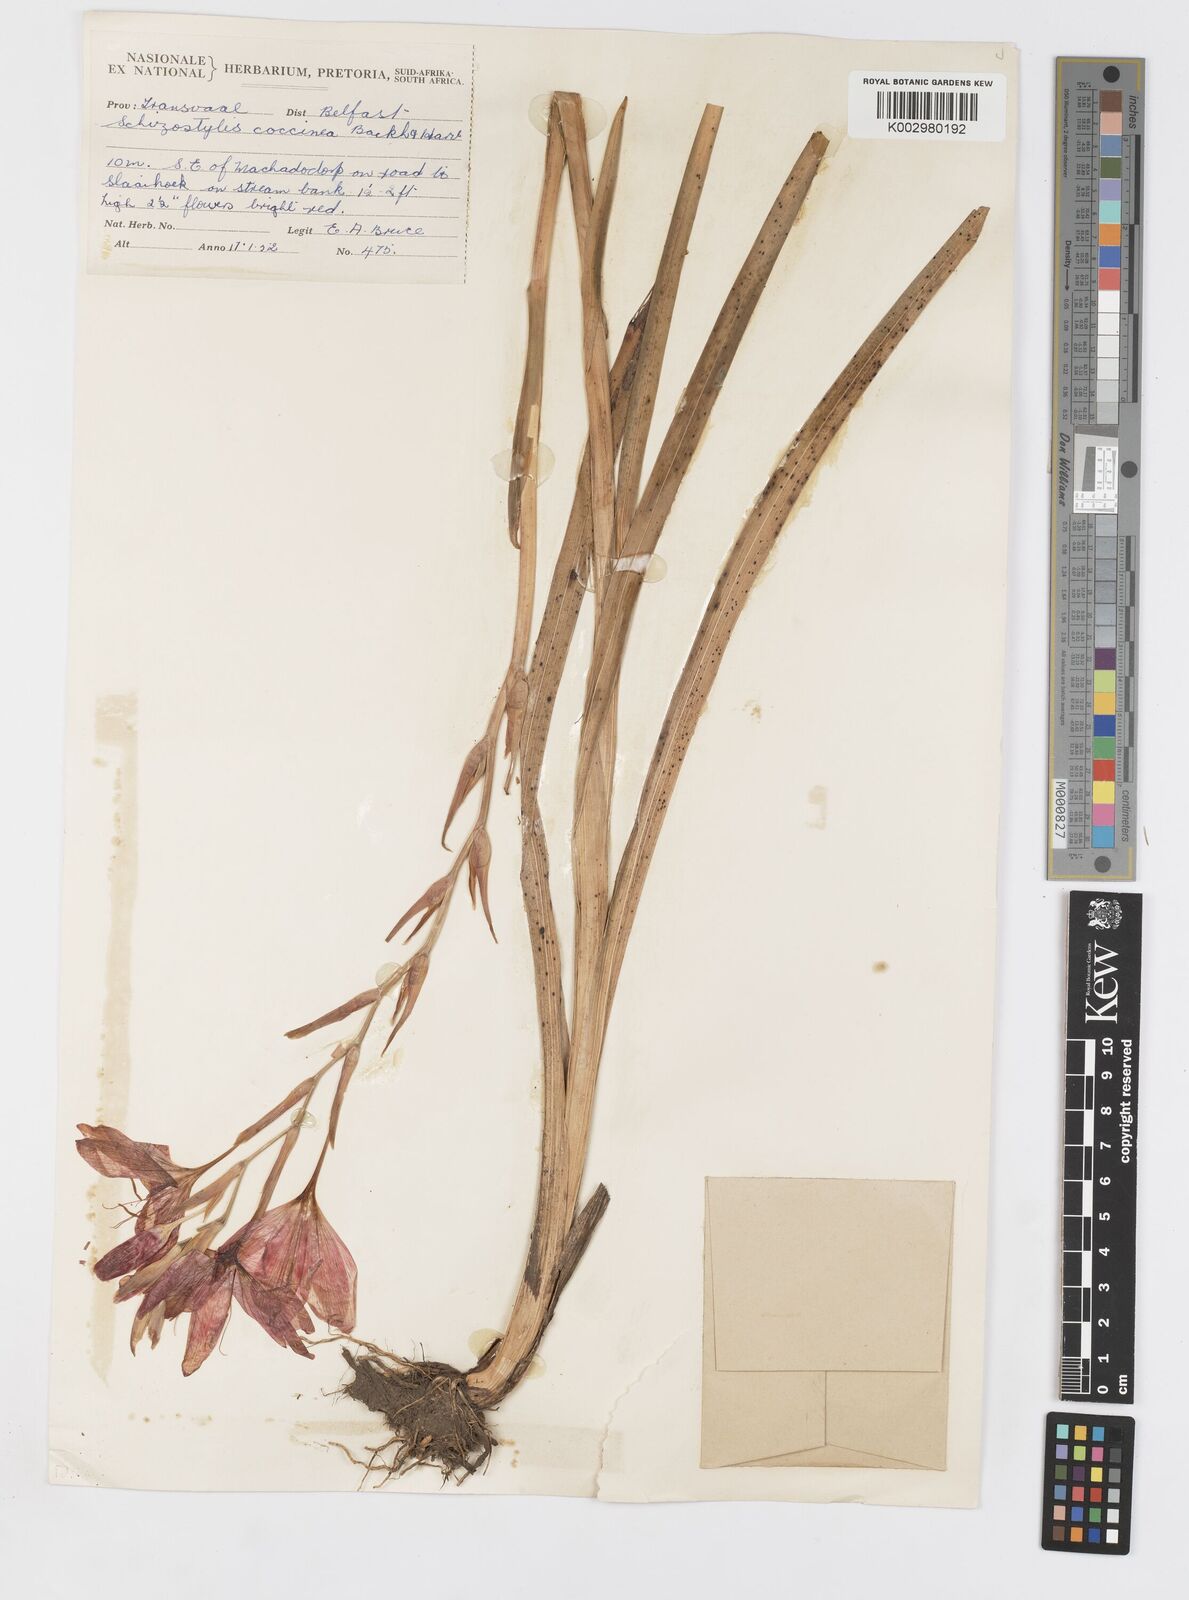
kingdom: Plantae
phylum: Tracheophyta
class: Liliopsida
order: Asparagales
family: Iridaceae
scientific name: Iridaceae
